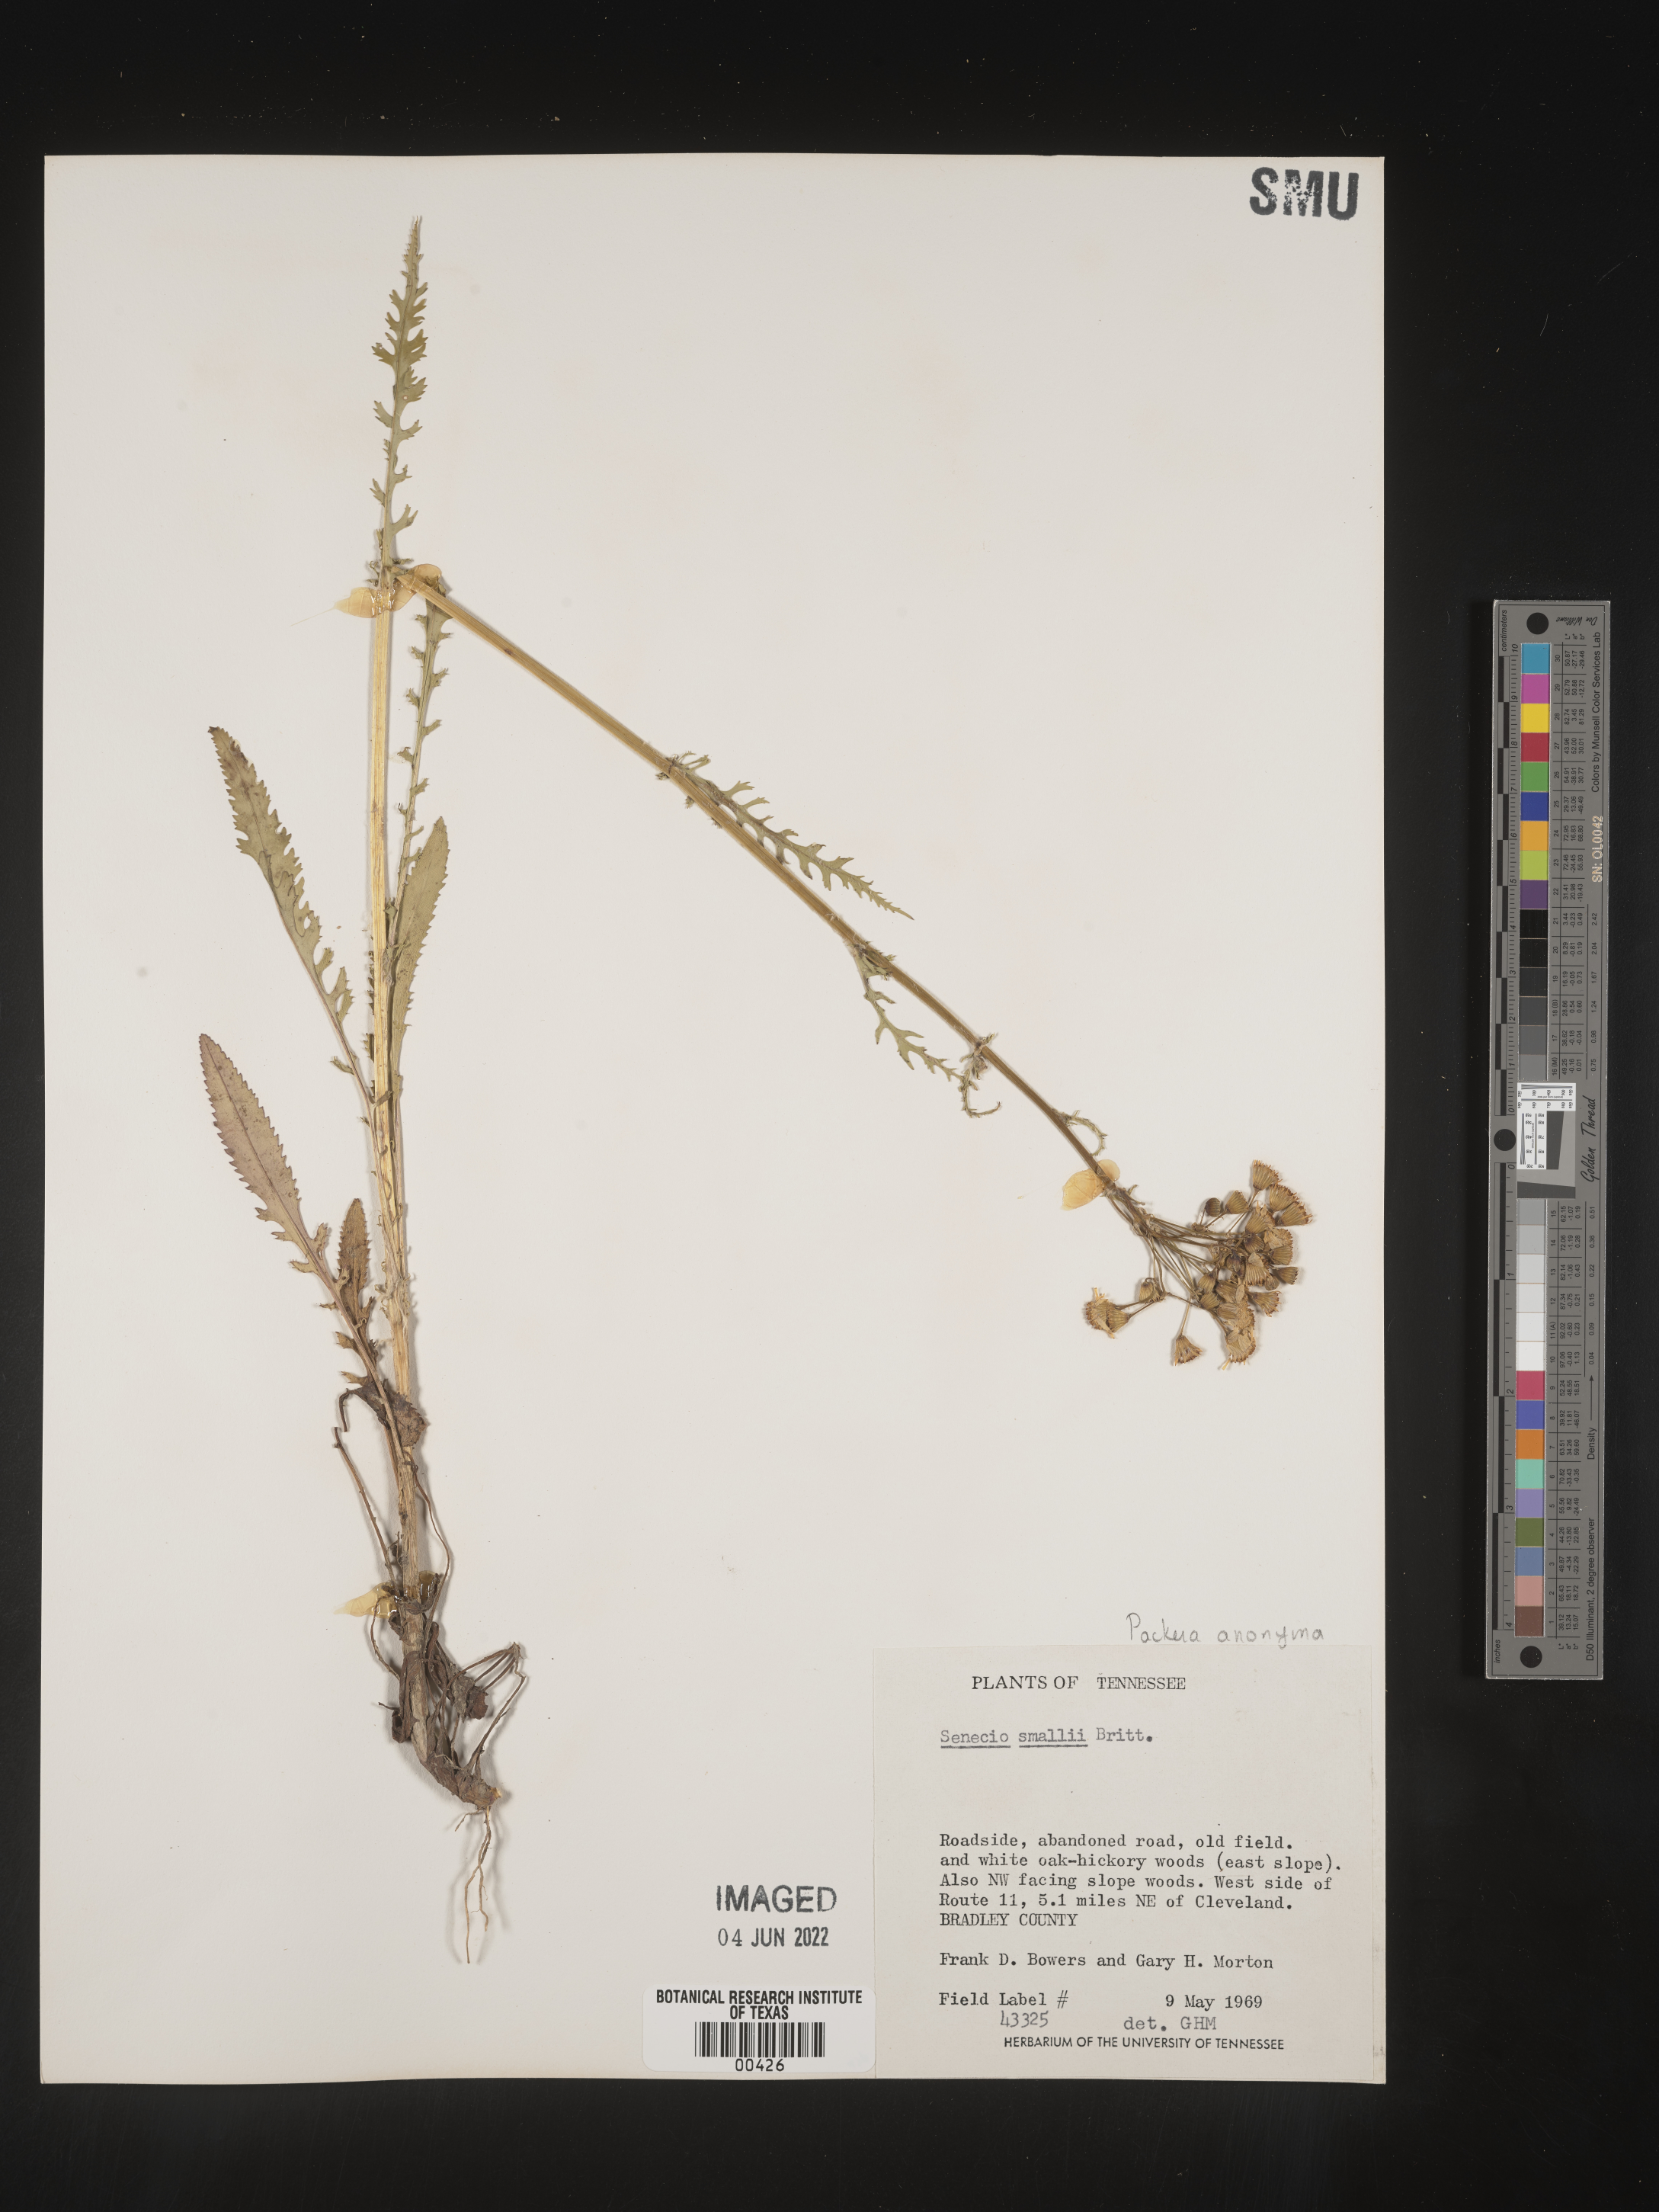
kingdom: Plantae
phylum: Tracheophyta
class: Magnoliopsida
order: Asterales
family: Asteraceae
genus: Packera
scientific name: Packera anonyma
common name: Small ragwort
